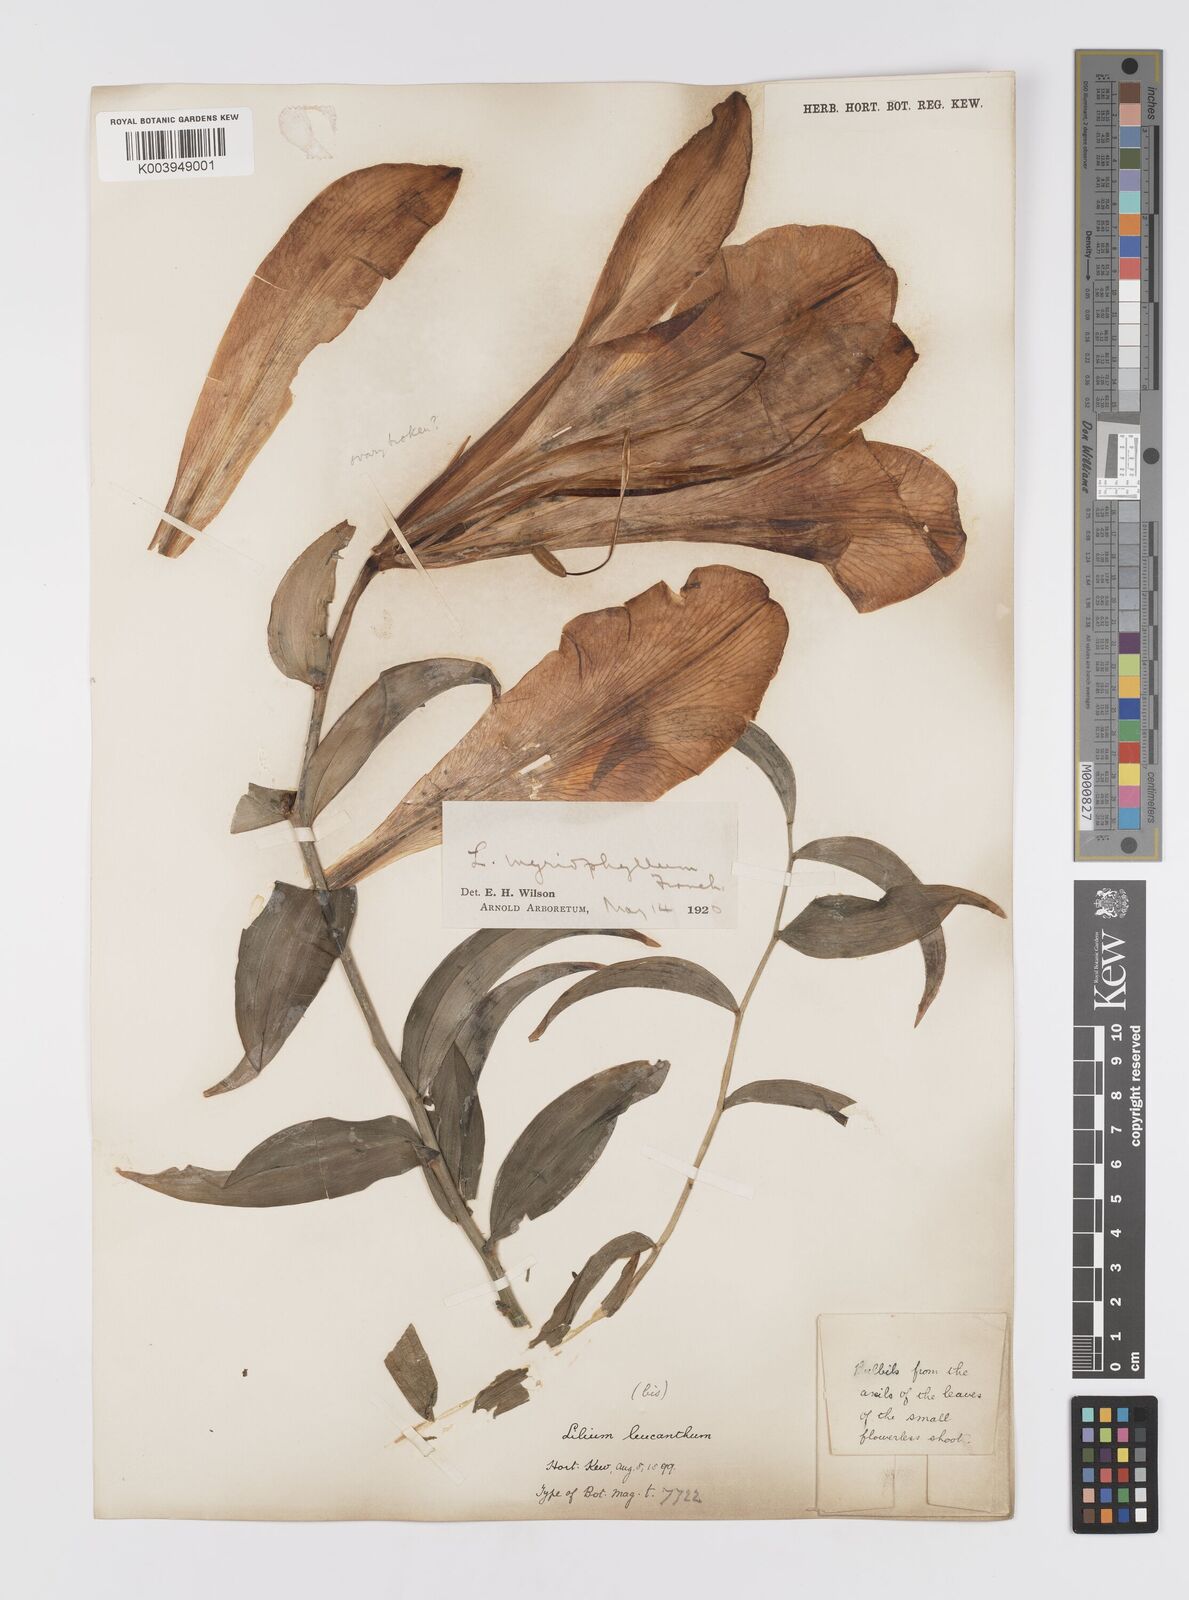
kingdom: Plantae
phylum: Tracheophyta
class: Liliopsida
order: Liliales
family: Liliaceae
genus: Lilium
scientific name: Lilium
